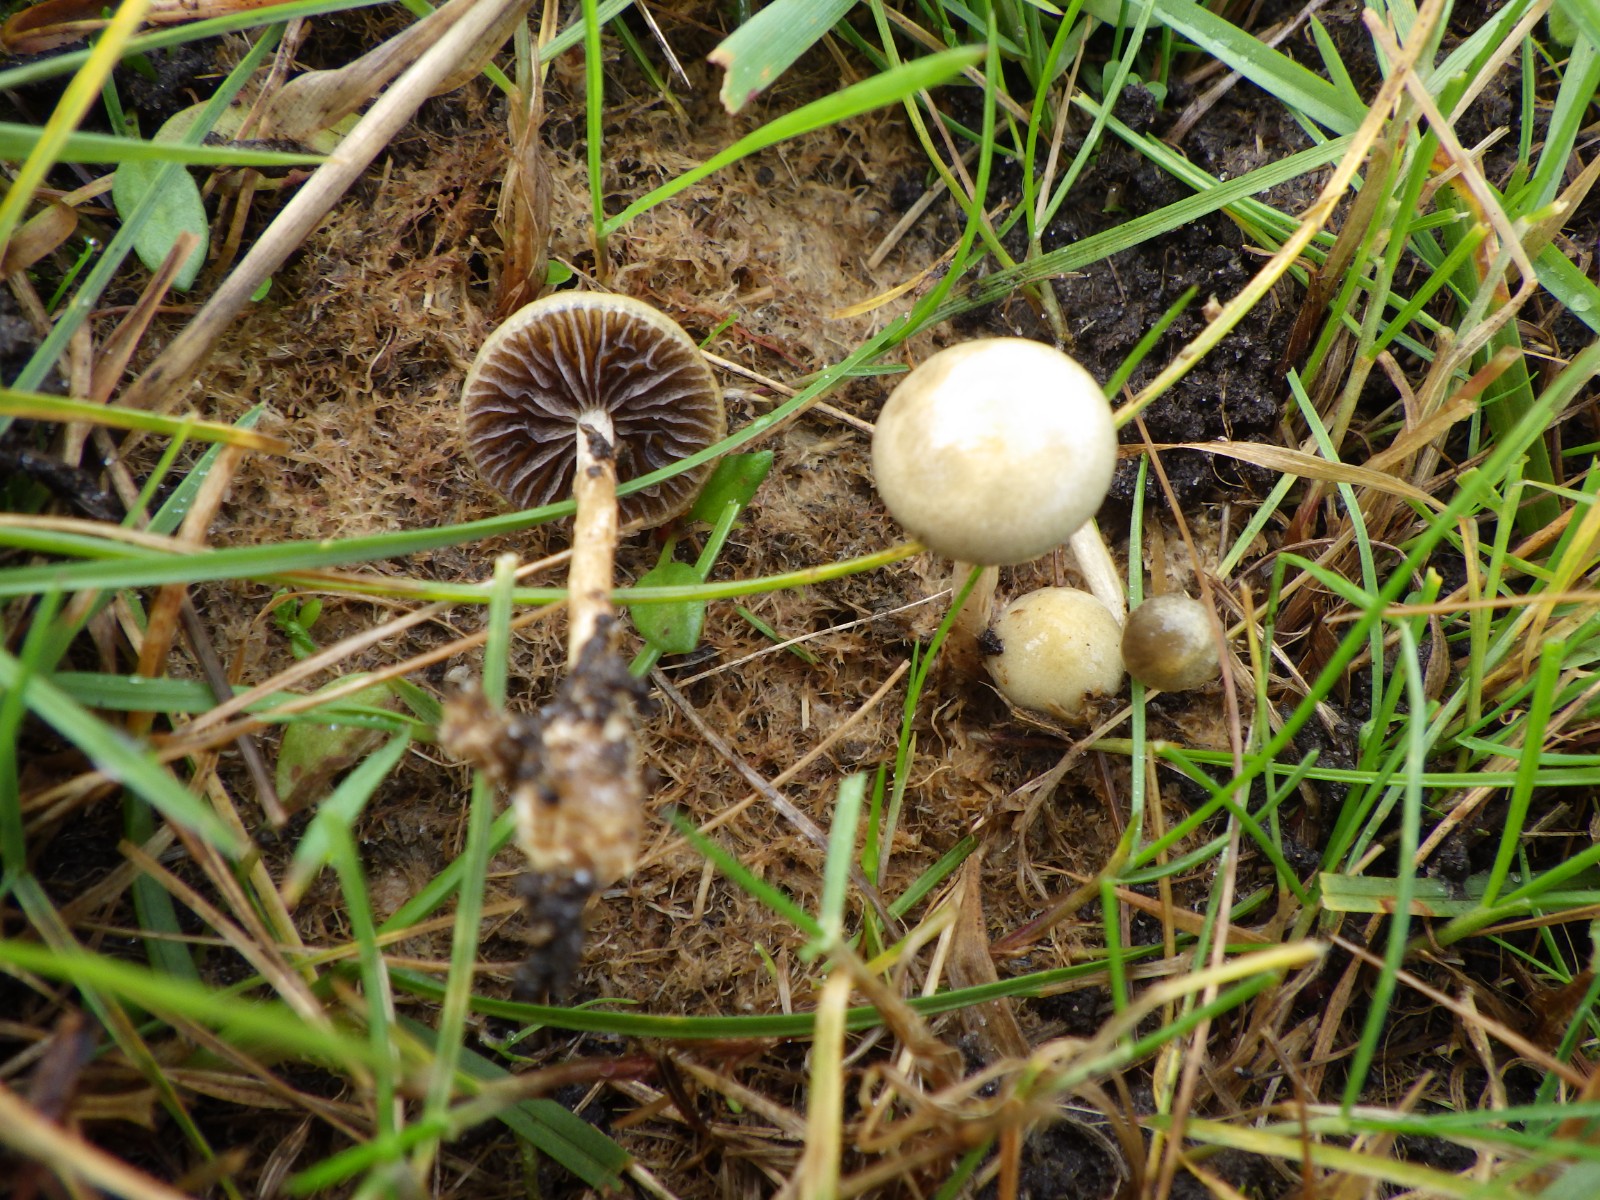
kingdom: Fungi
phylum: Basidiomycota
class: Agaricomycetes
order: Agaricales
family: Strophariaceae
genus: Protostropharia
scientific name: Protostropharia semiglobata
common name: halvkugleformet bredblad
